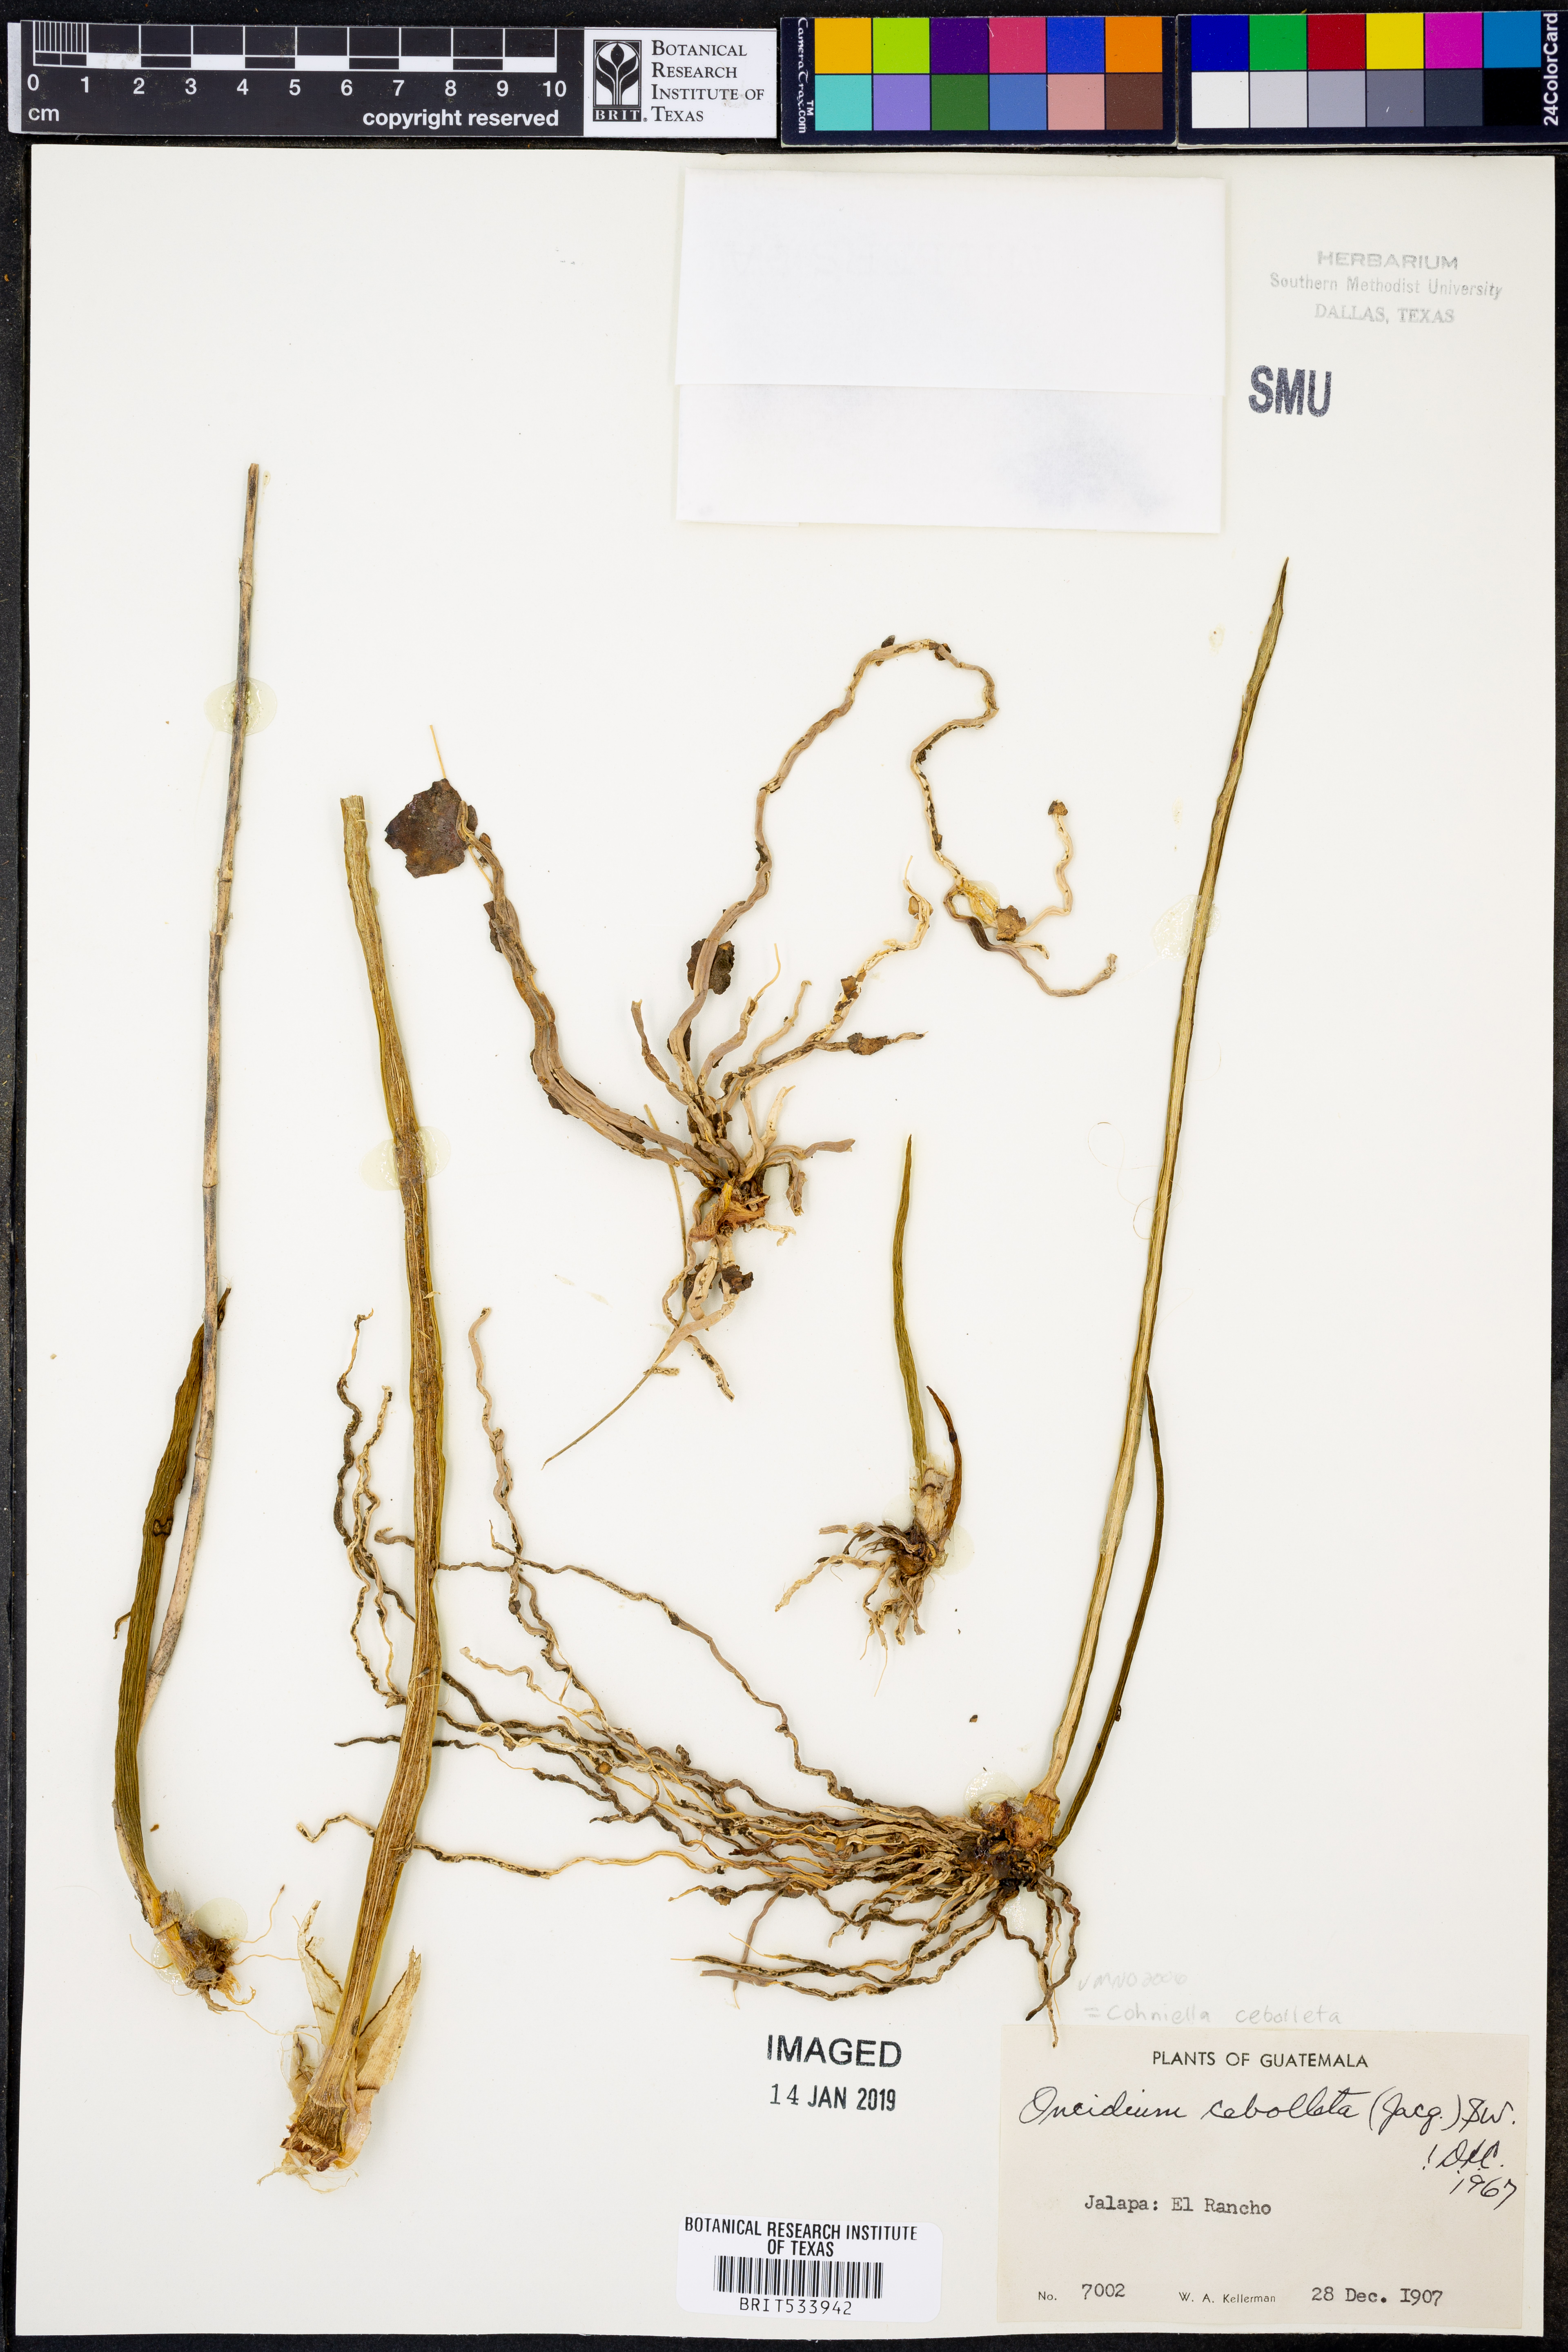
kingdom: Plantae
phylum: Tracheophyta
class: Liliopsida
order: Asparagales
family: Orchidaceae
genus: Trichocentrum
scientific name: Trichocentrum cebolleta
